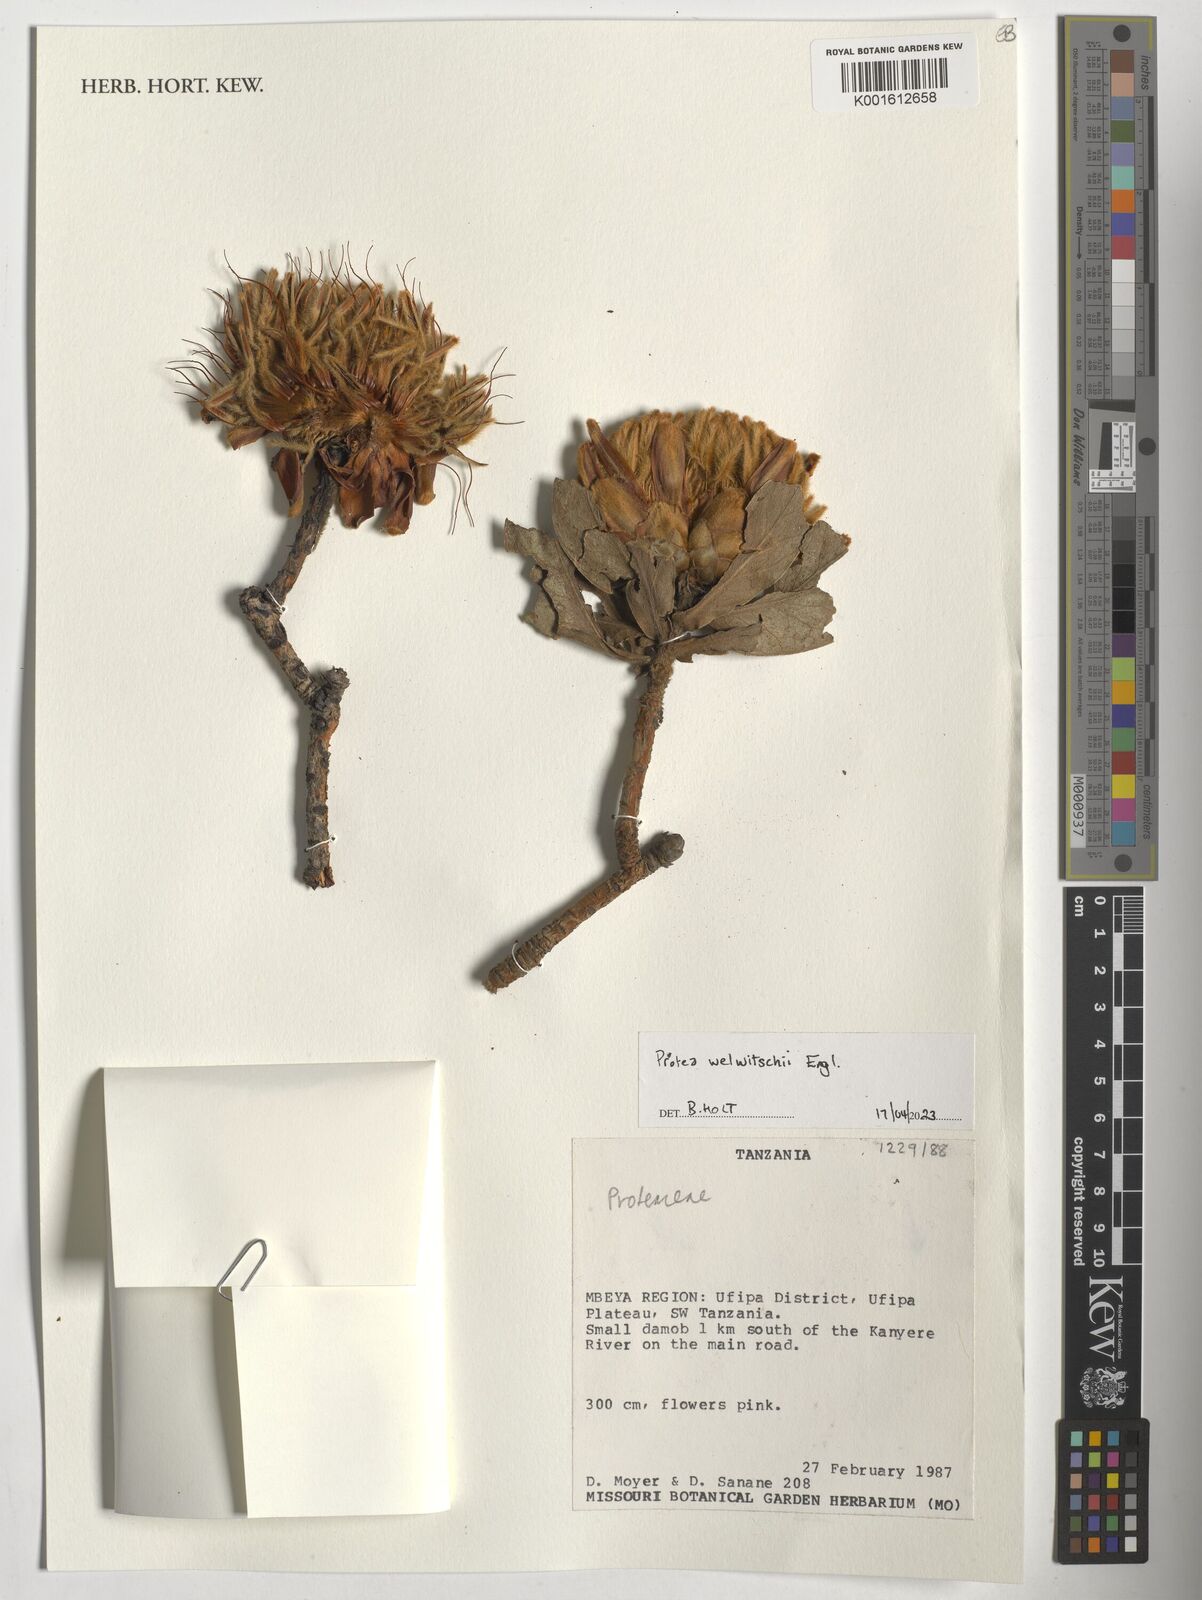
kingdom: Plantae
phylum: Tracheophyta
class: Magnoliopsida
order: Proteales
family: Proteaceae
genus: Protea
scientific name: Protea welwitschii
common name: Cluster-head protea
